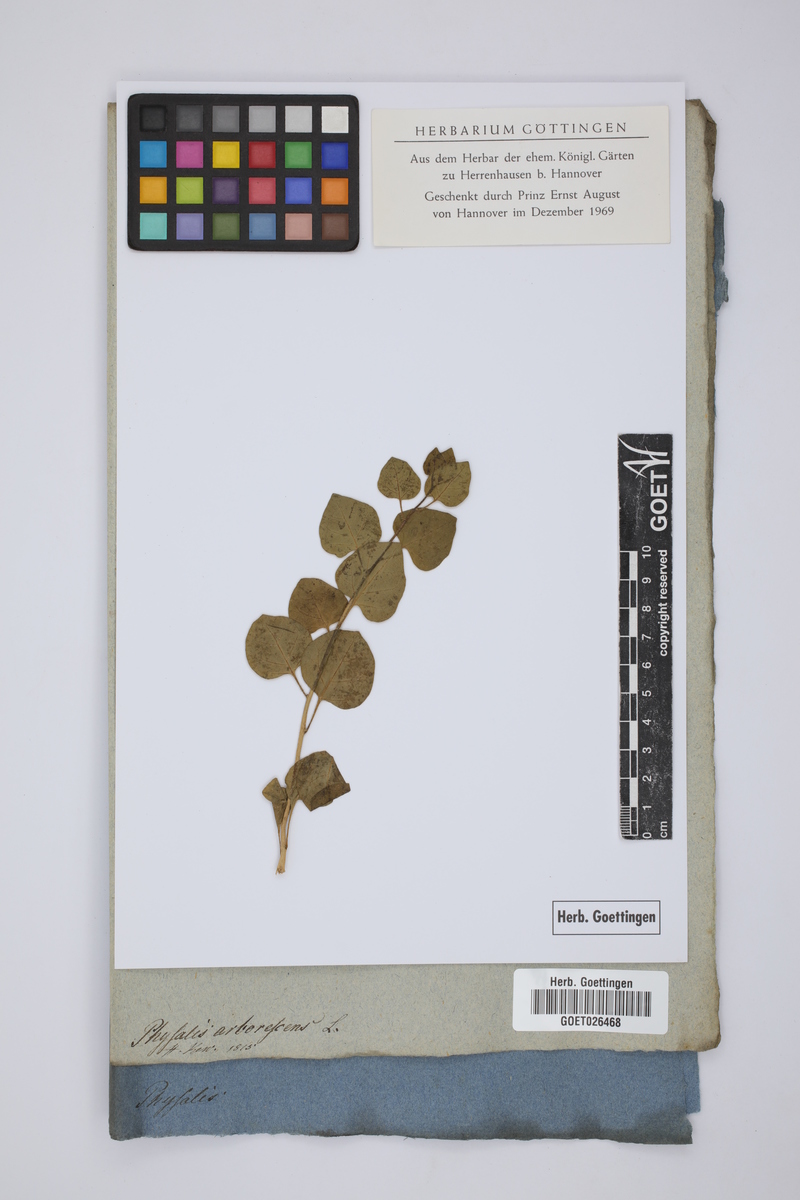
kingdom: Plantae
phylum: Tracheophyta
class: Magnoliopsida
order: Solanales
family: Solanaceae
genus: Physalis
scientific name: Physalis arborescens
